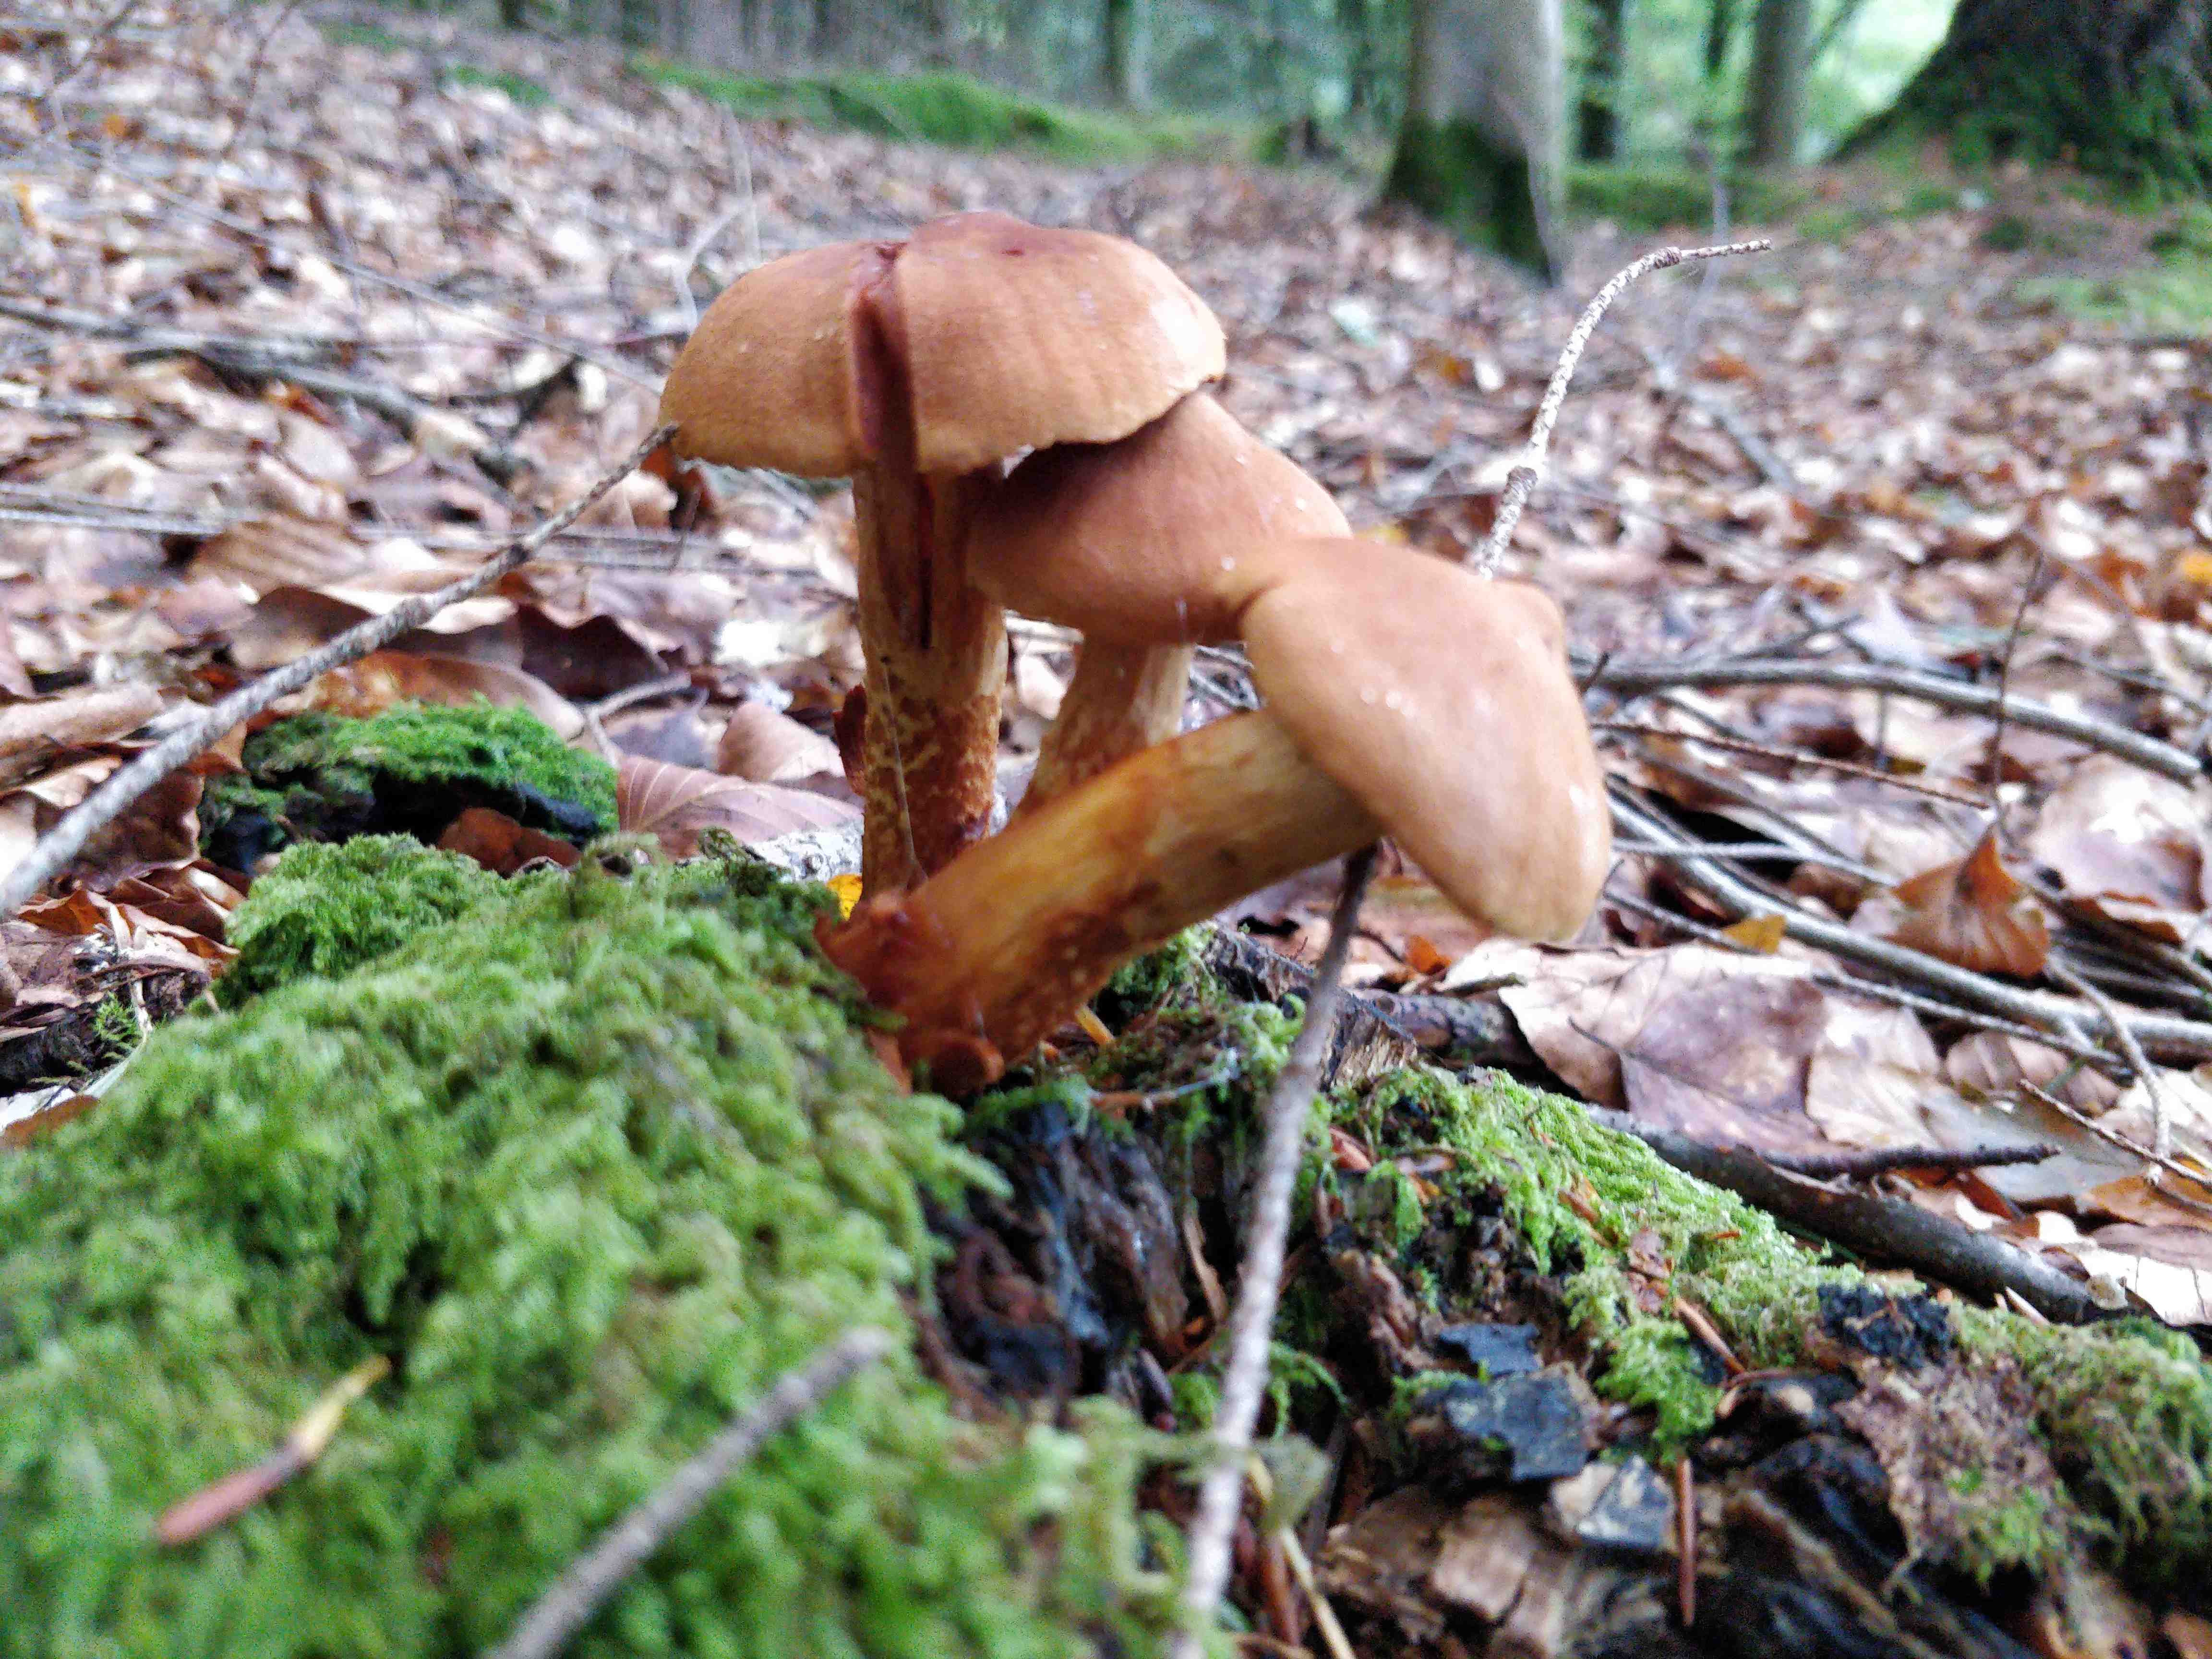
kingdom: Fungi
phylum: Basidiomycota
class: Agaricomycetes
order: Agaricales
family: Cortinariaceae
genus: Cortinarius
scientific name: Cortinarius rubellus
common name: puklet gift-slørhat
